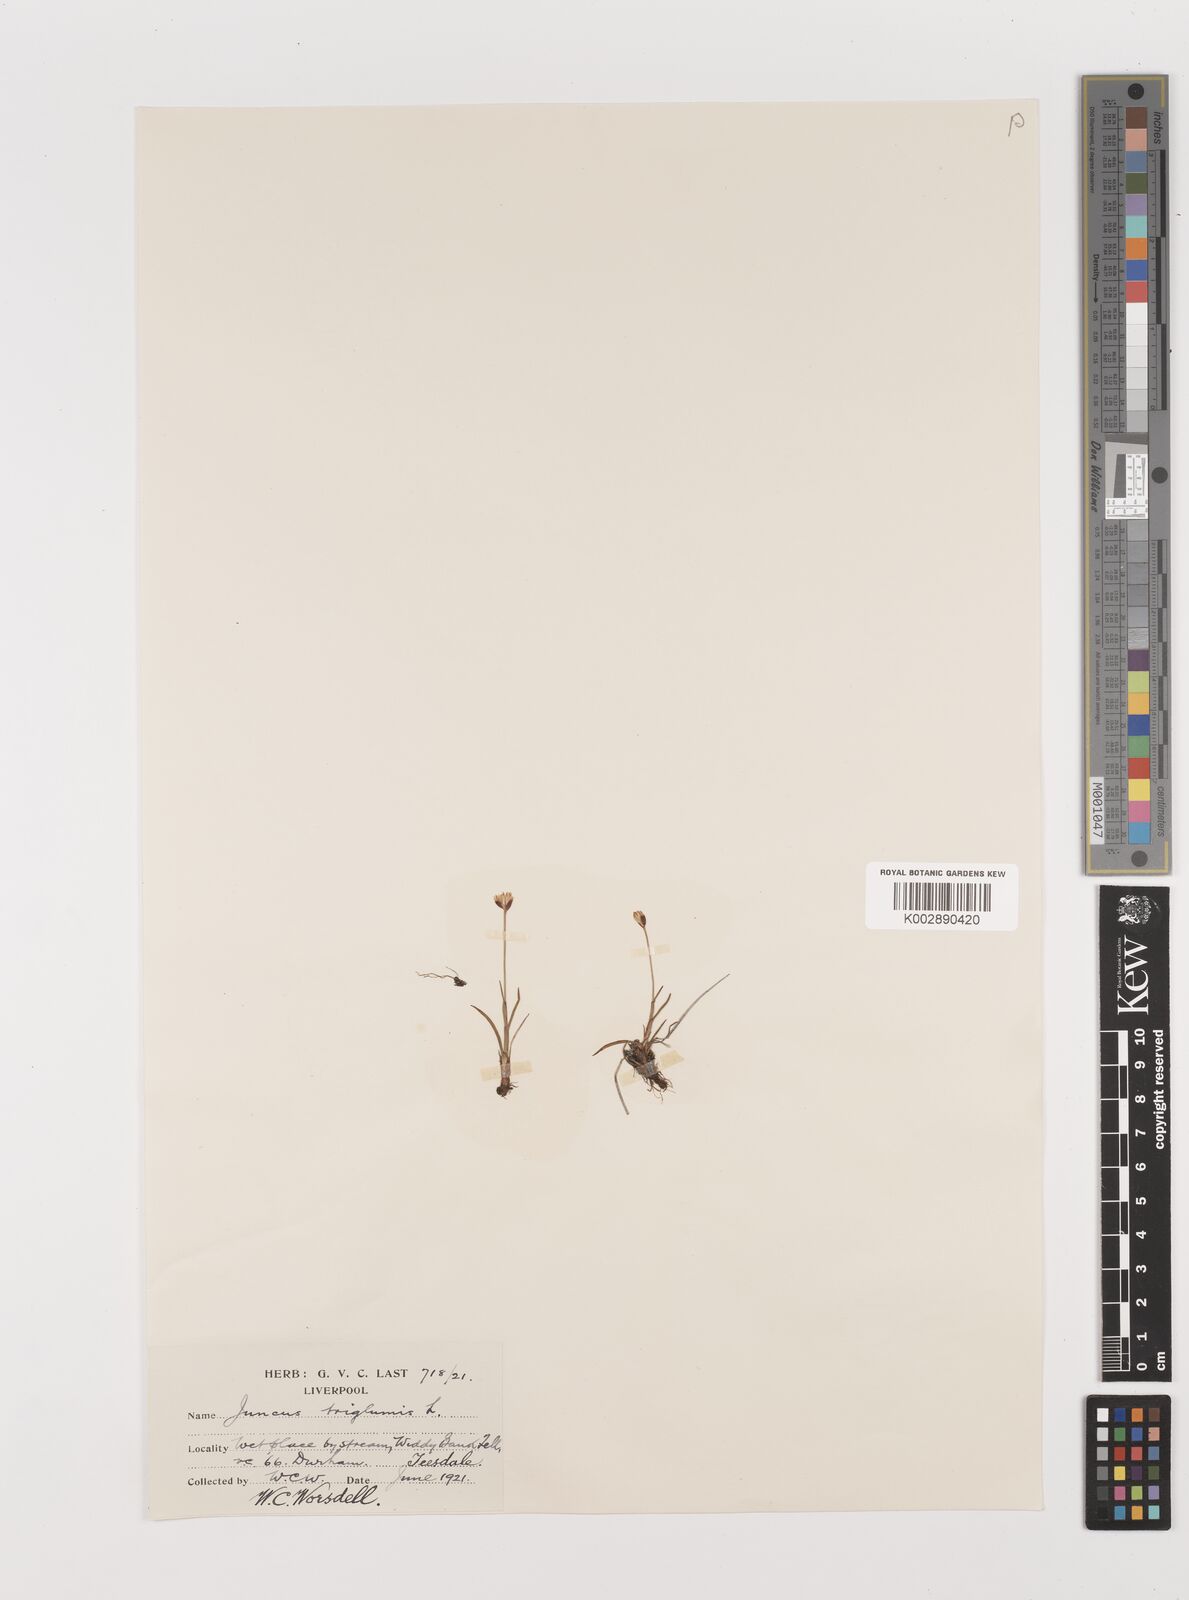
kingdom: Plantae
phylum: Tracheophyta
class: Liliopsida
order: Poales
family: Juncaceae
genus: Juncus
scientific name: Juncus triglumis
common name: Three-flowered rush
